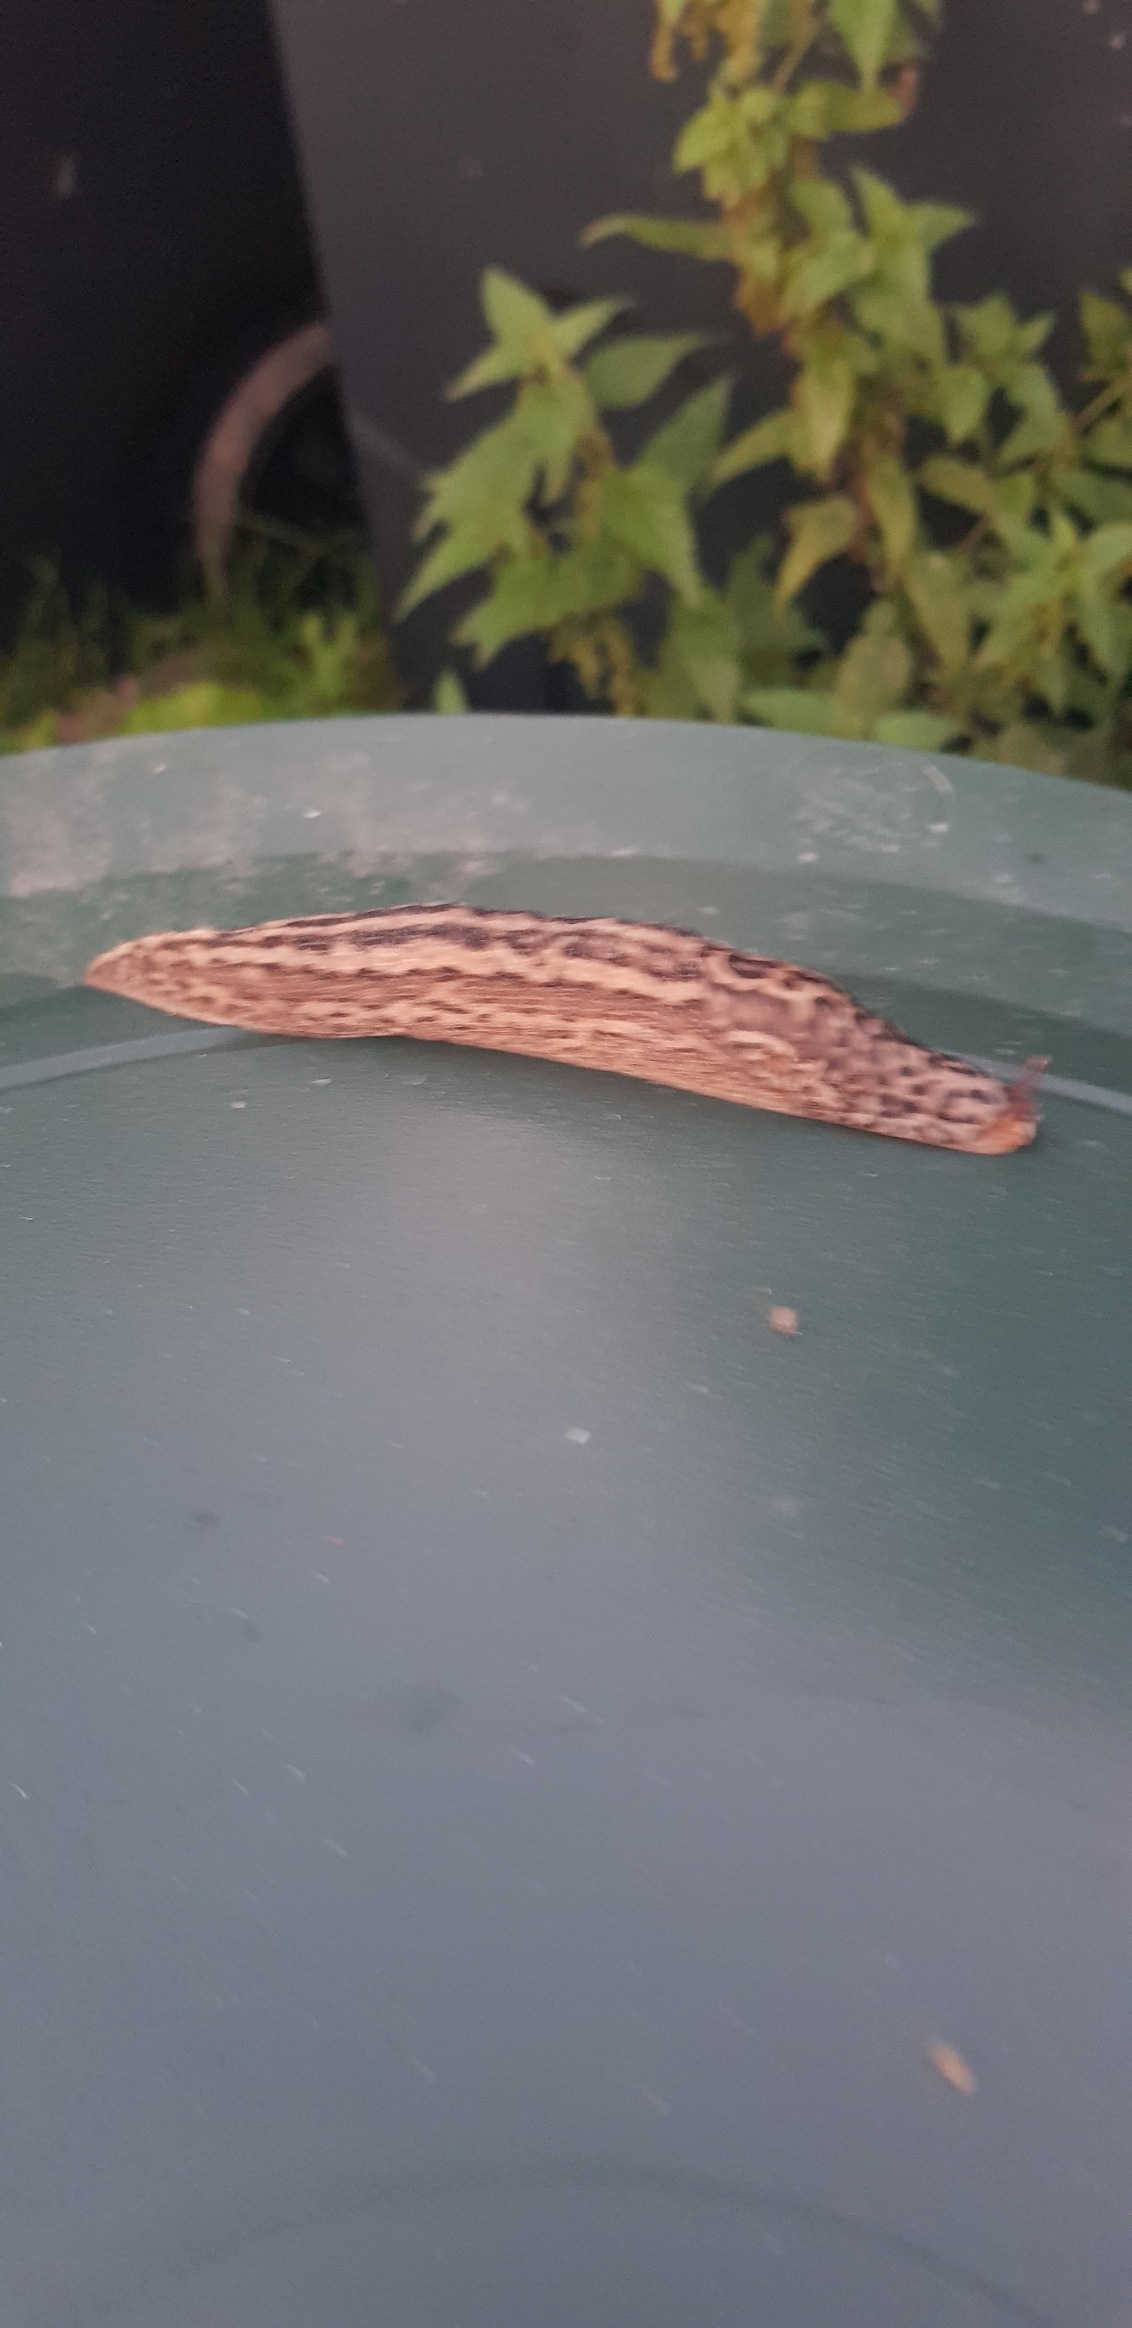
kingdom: Animalia
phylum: Mollusca
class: Gastropoda
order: Stylommatophora
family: Limacidae
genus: Limax
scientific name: Limax maximus
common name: Pantersnegl
